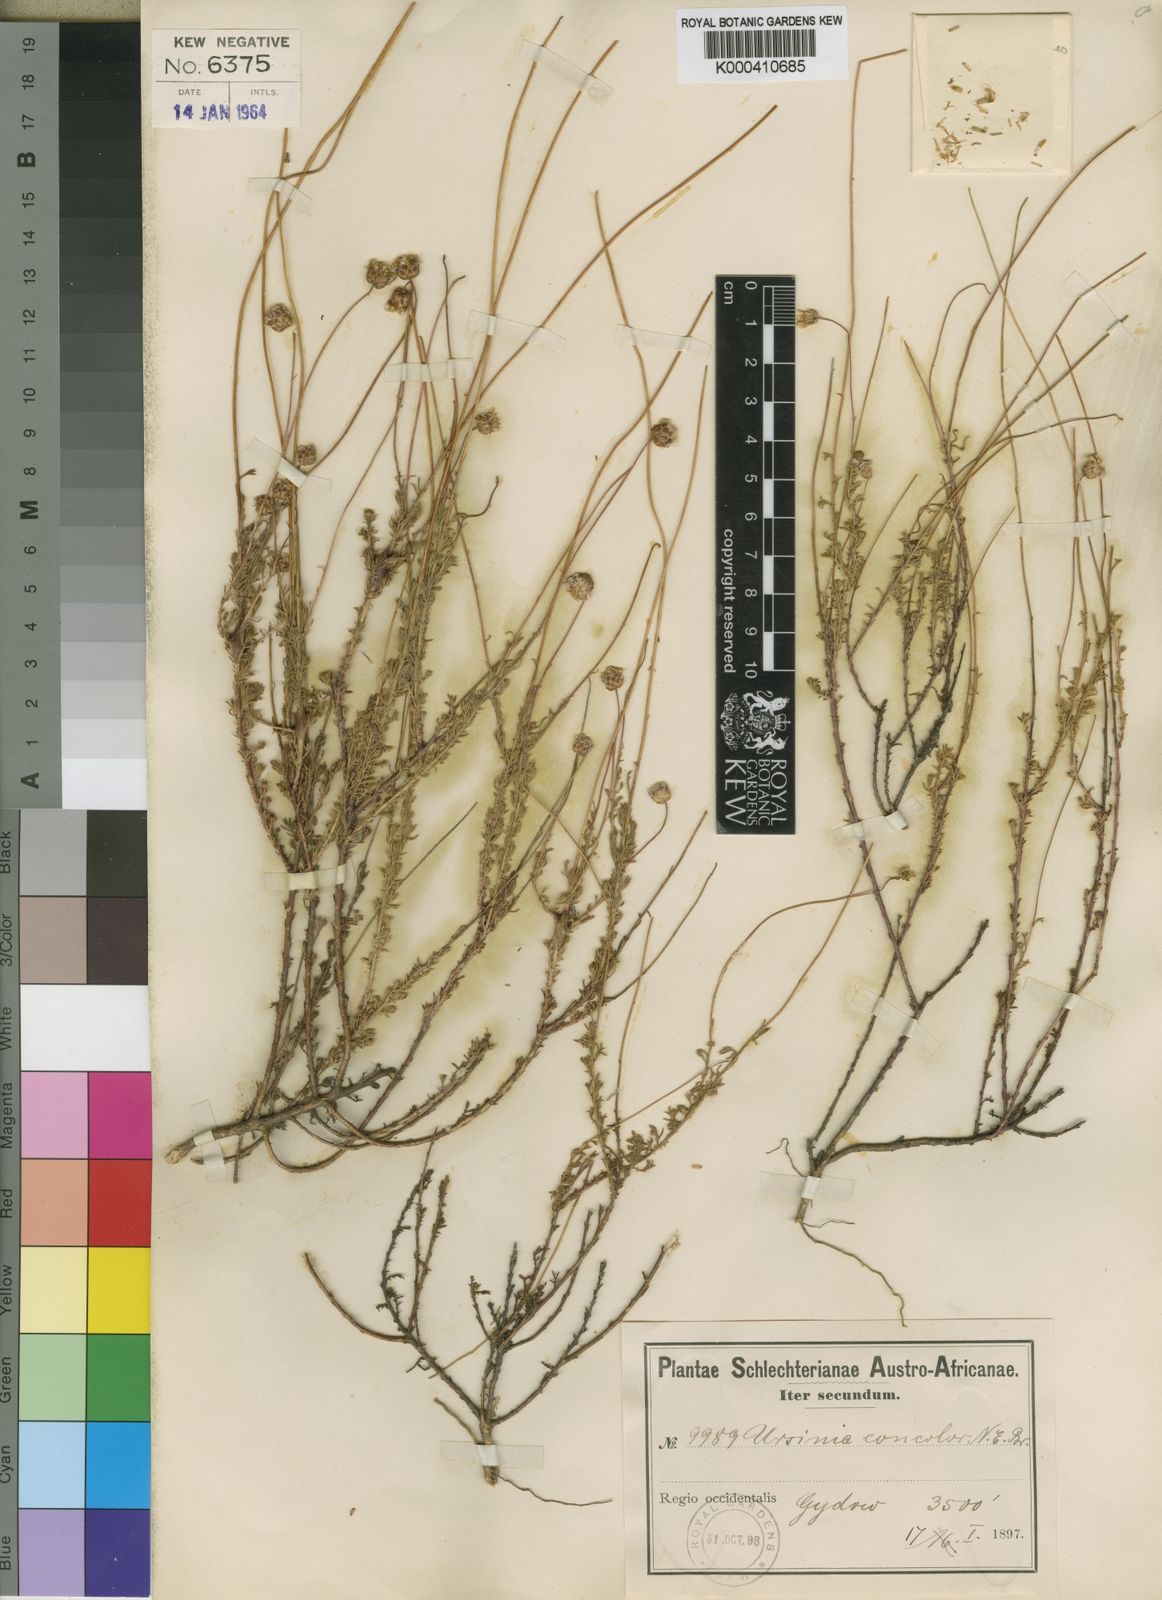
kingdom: Plantae
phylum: Tracheophyta
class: Magnoliopsida
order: Asterales
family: Asteraceae
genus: Ursinia
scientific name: Ursinia punctata
